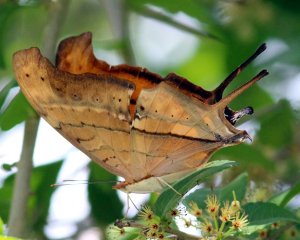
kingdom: Animalia
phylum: Arthropoda
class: Insecta
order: Lepidoptera
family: Nymphalidae
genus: Marpesia
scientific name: Marpesia petreus
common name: Ruddy Daggerwing
